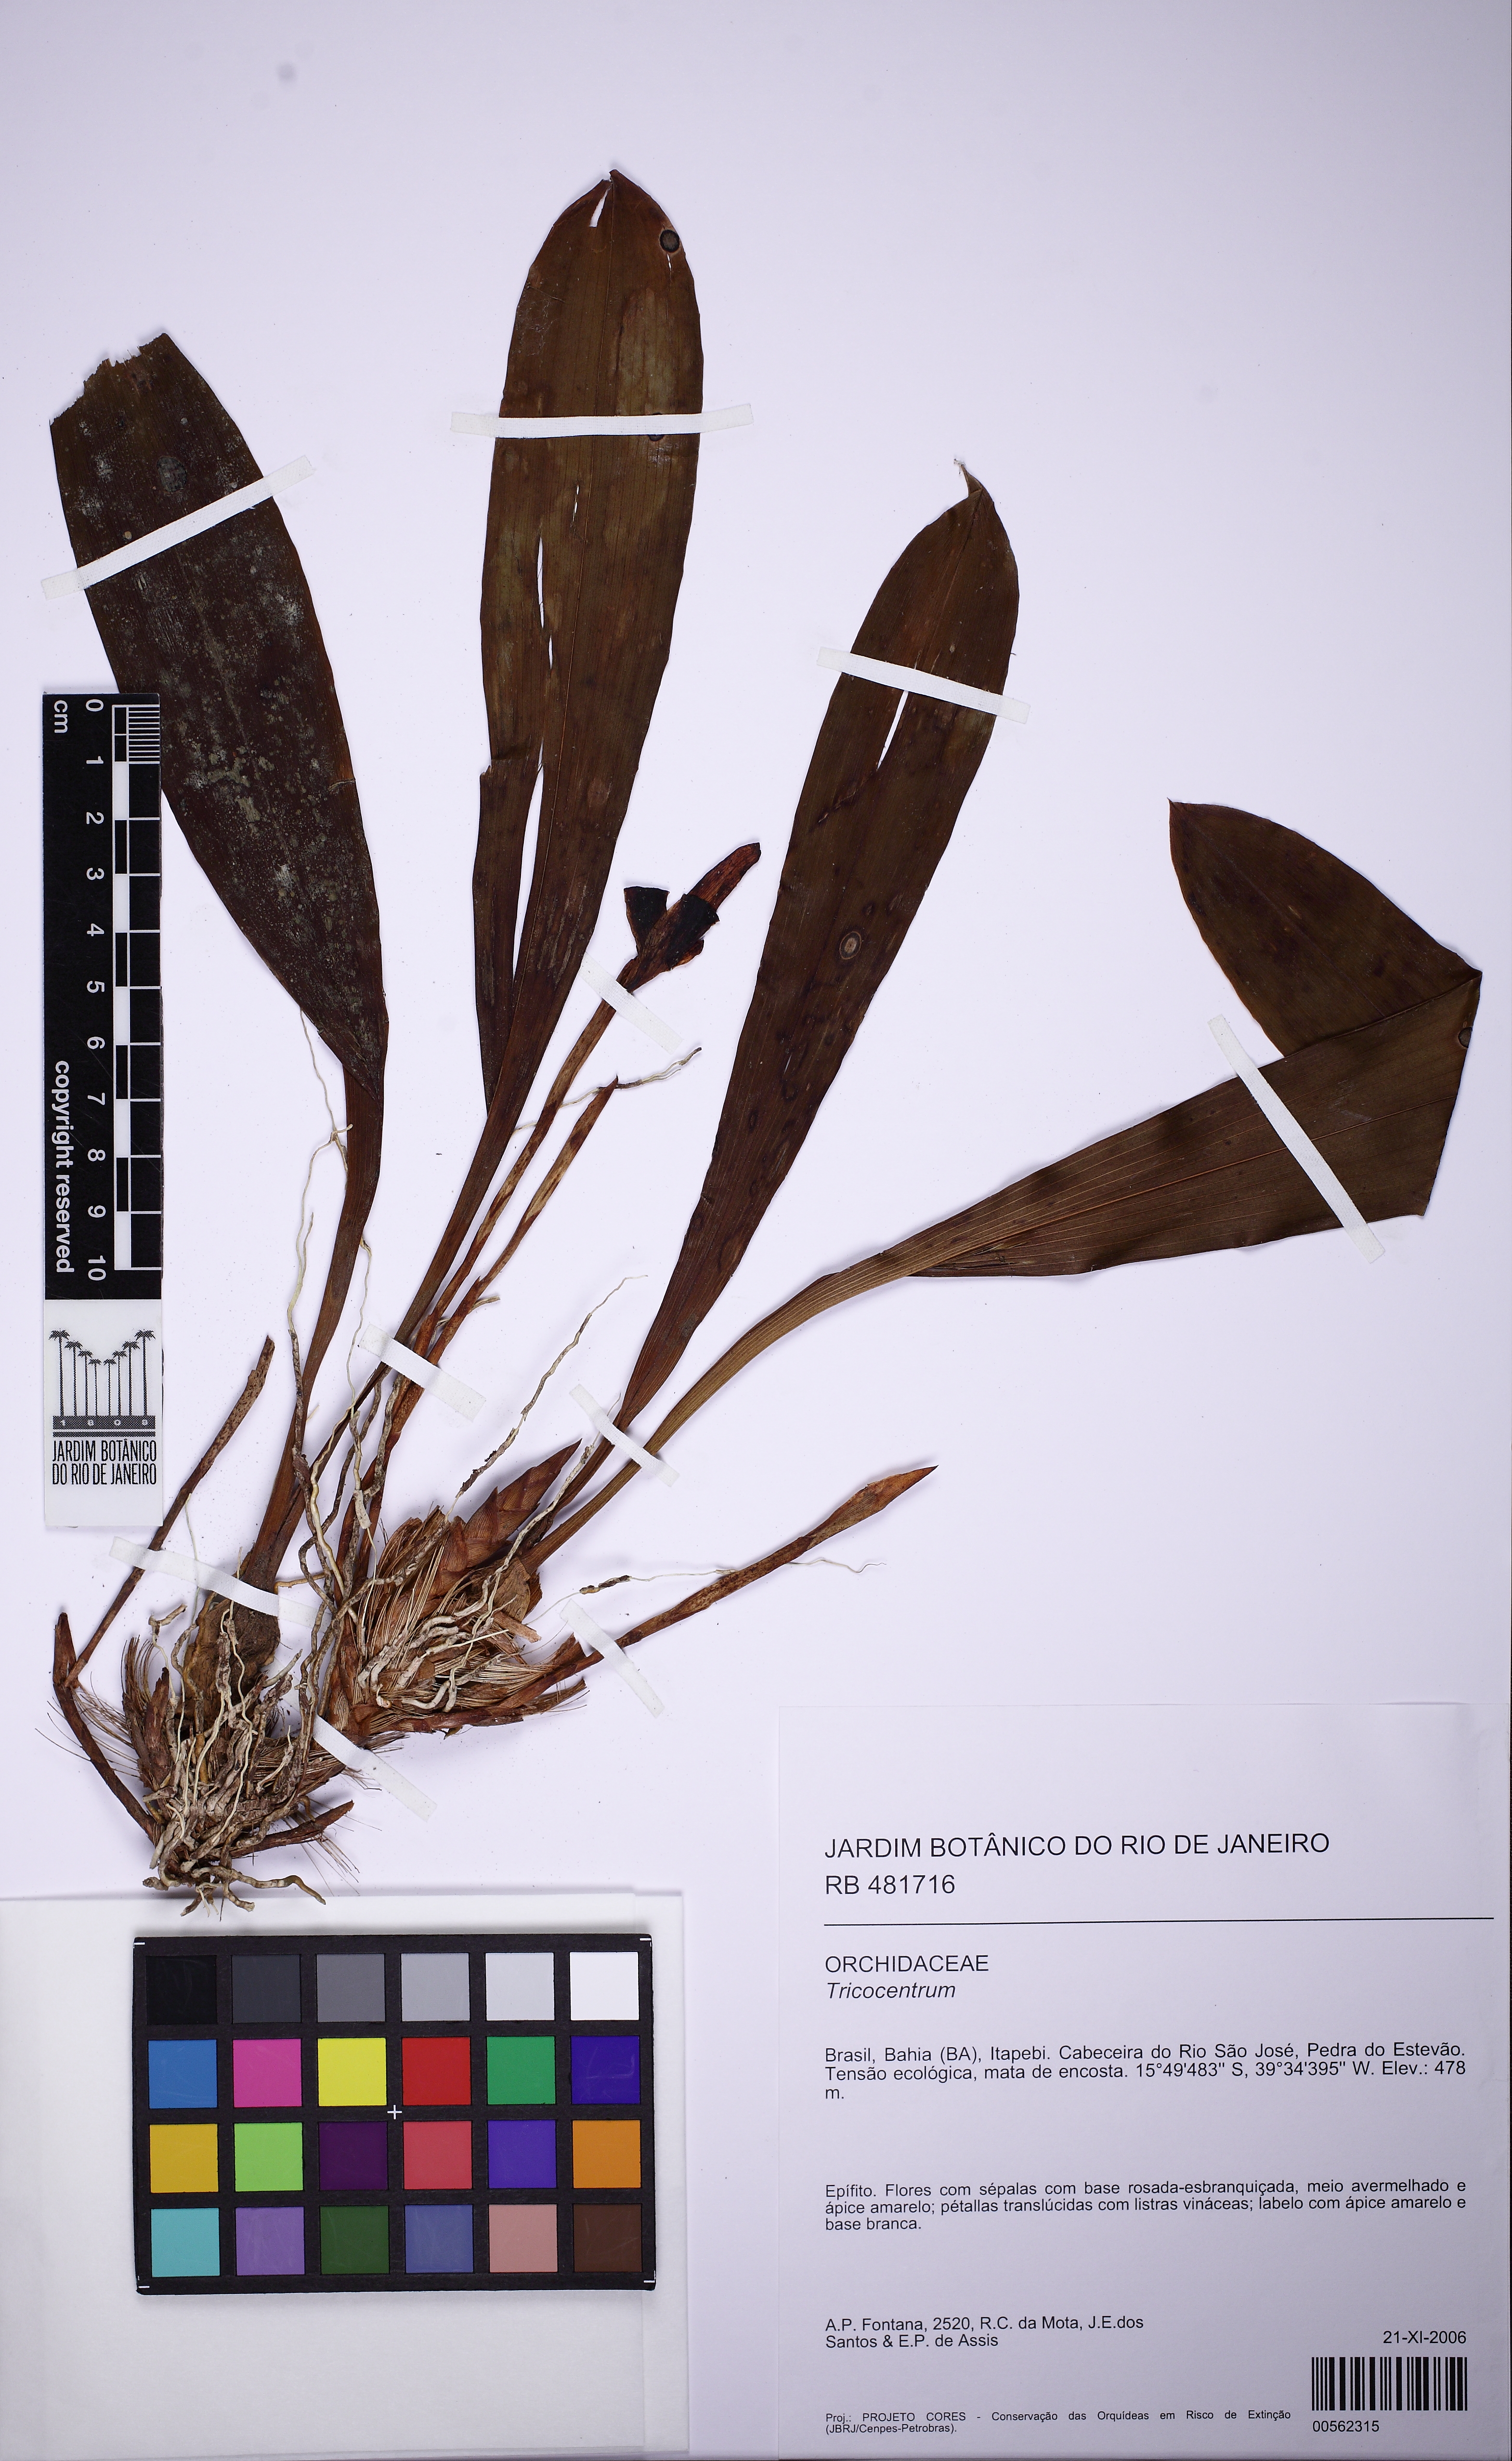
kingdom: Plantae
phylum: Tracheophyta
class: Liliopsida
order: Asparagales
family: Orchidaceae
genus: Maxillaria
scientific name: Maxillaria elluziae
